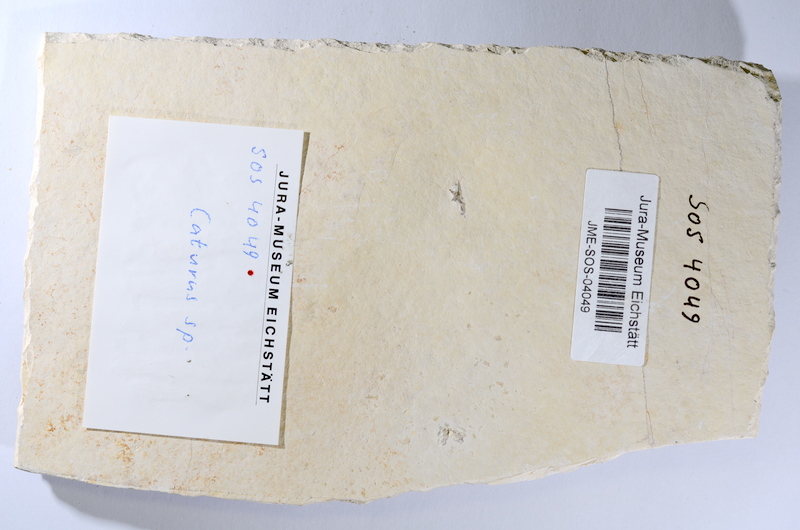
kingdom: Animalia
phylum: Chordata
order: Amiiformes
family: Caturidae
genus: Caturus
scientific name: Caturus
